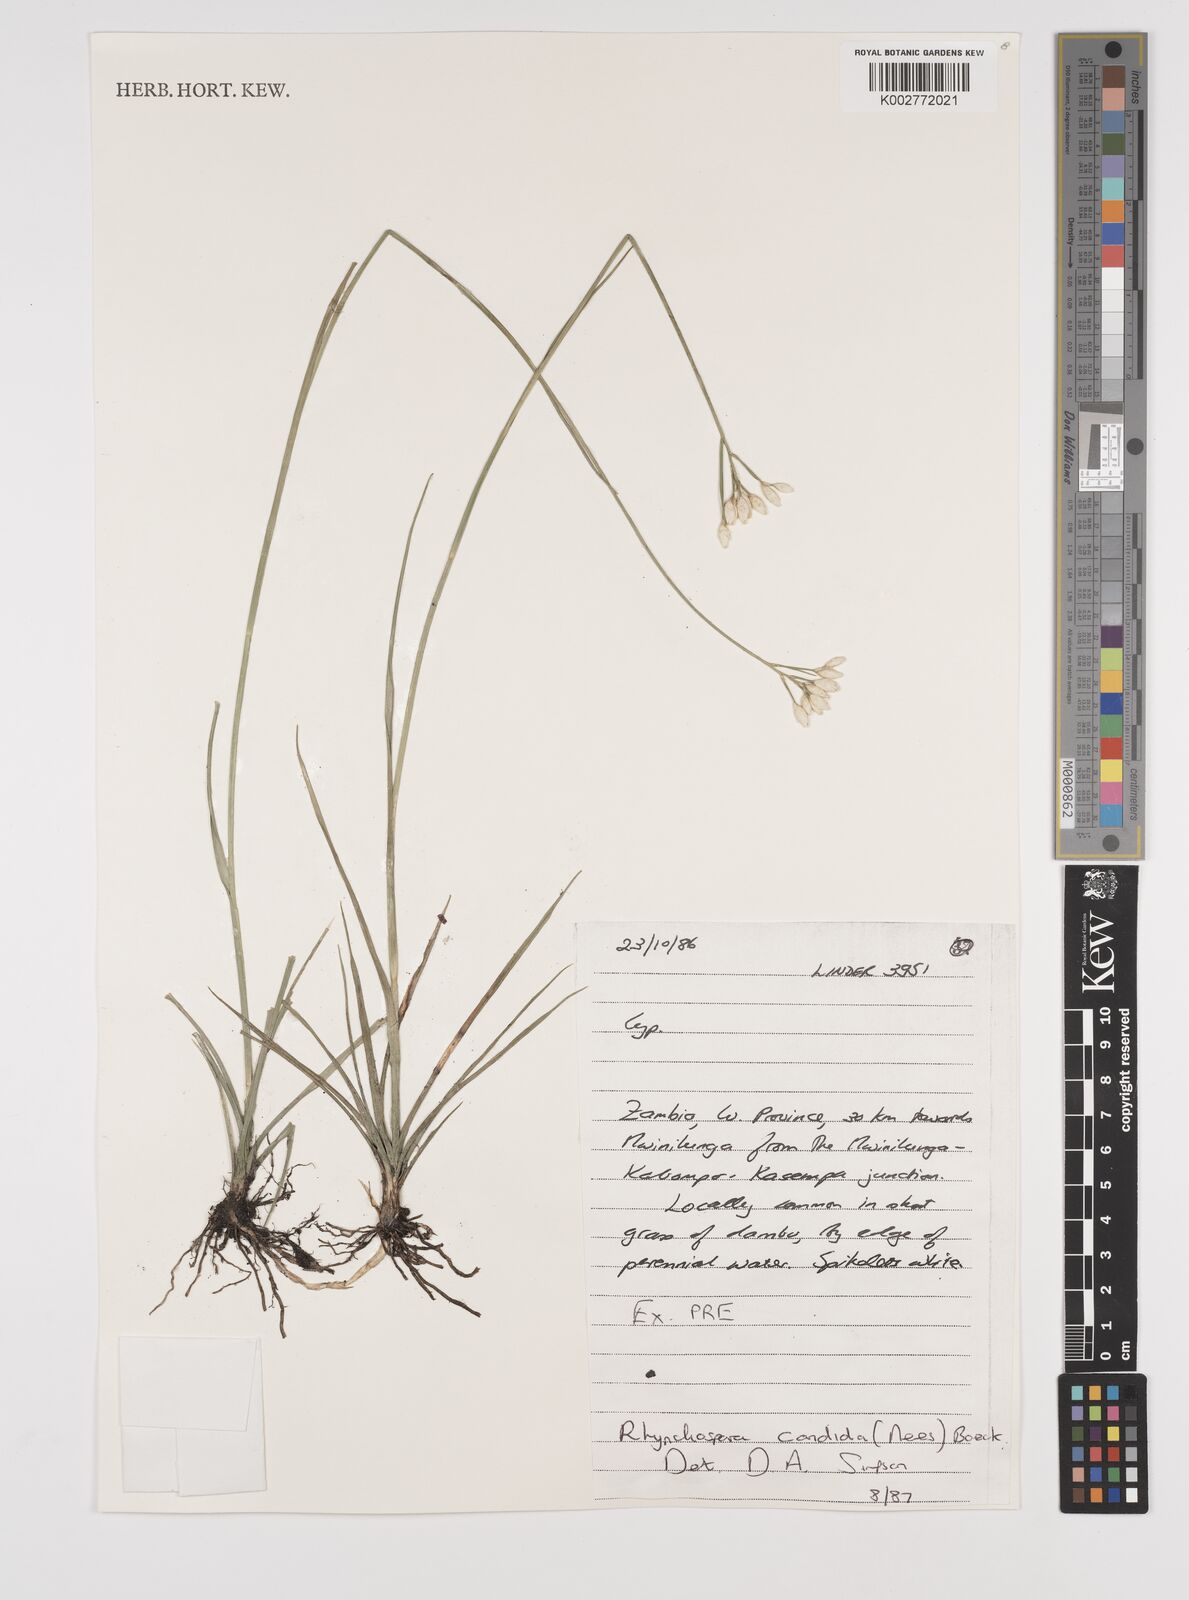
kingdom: Plantae
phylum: Tracheophyta
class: Liliopsida
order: Poales
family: Cyperaceae
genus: Rhynchospora
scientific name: Rhynchospora candida
